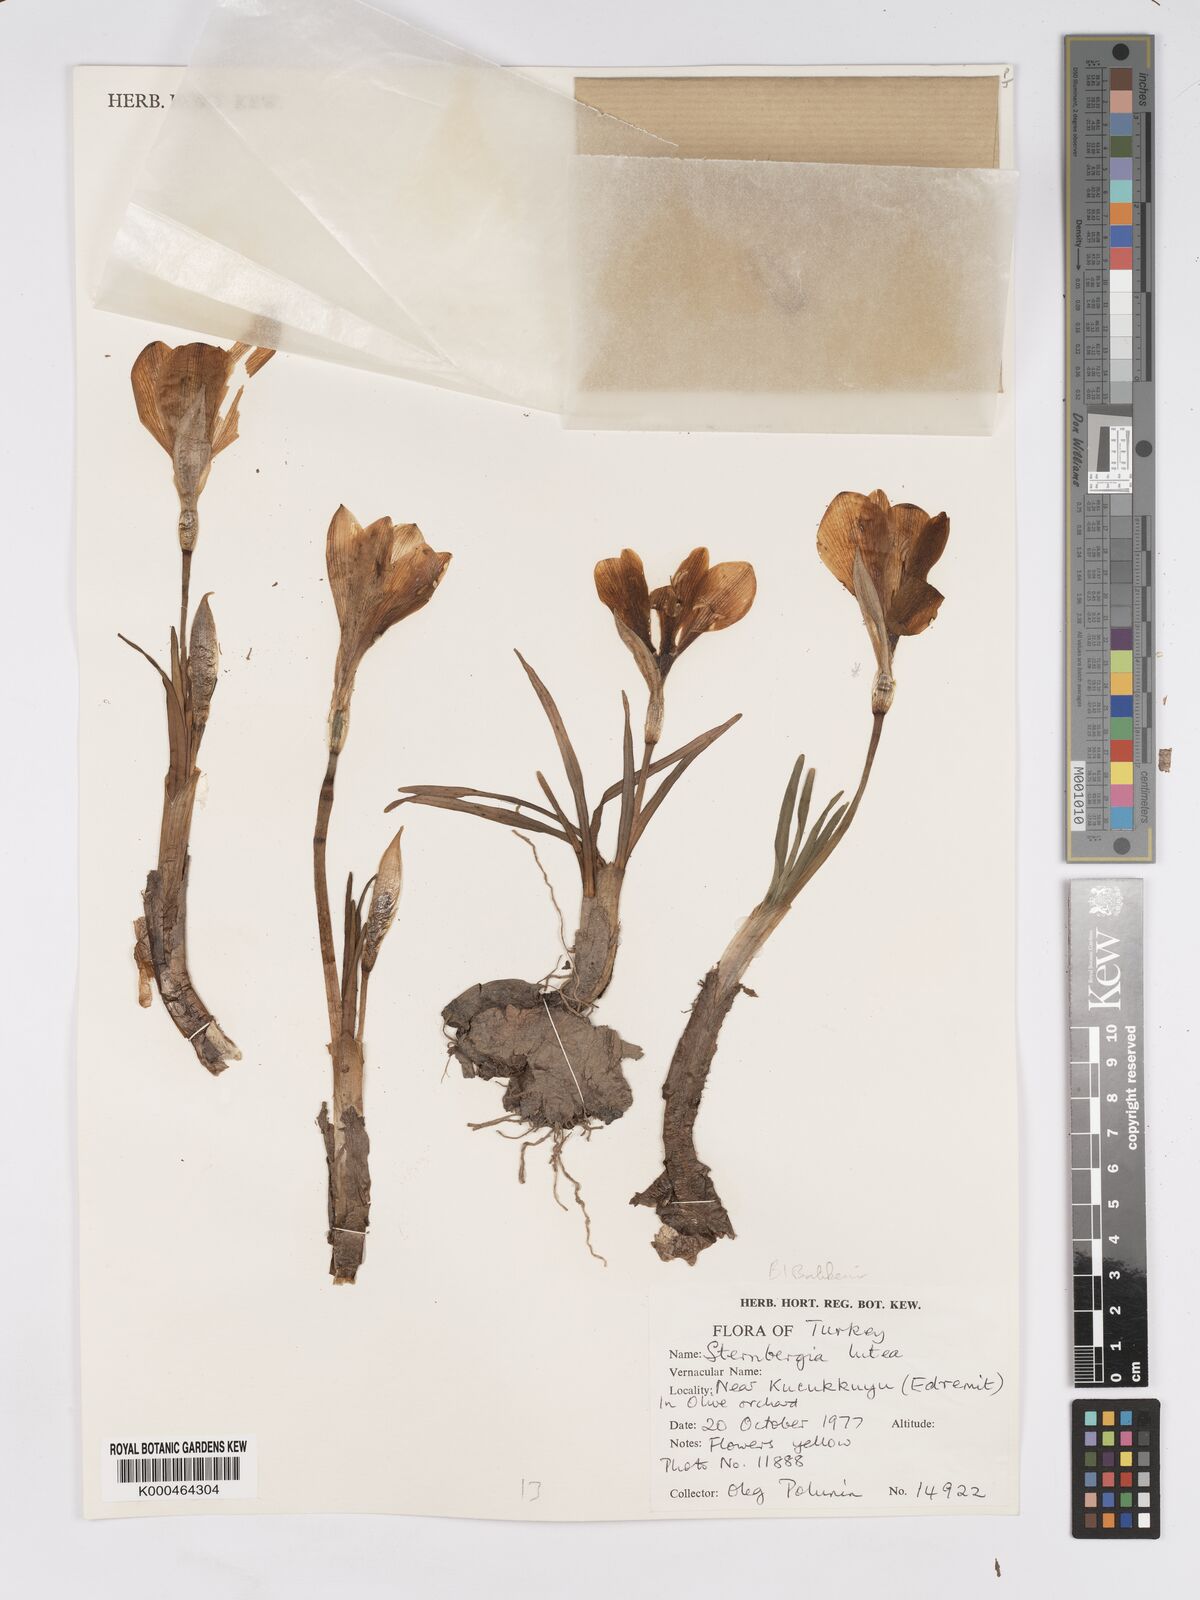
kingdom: Plantae
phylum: Tracheophyta
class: Liliopsida
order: Asparagales
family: Amaryllidaceae
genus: Sternbergia
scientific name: Sternbergia
